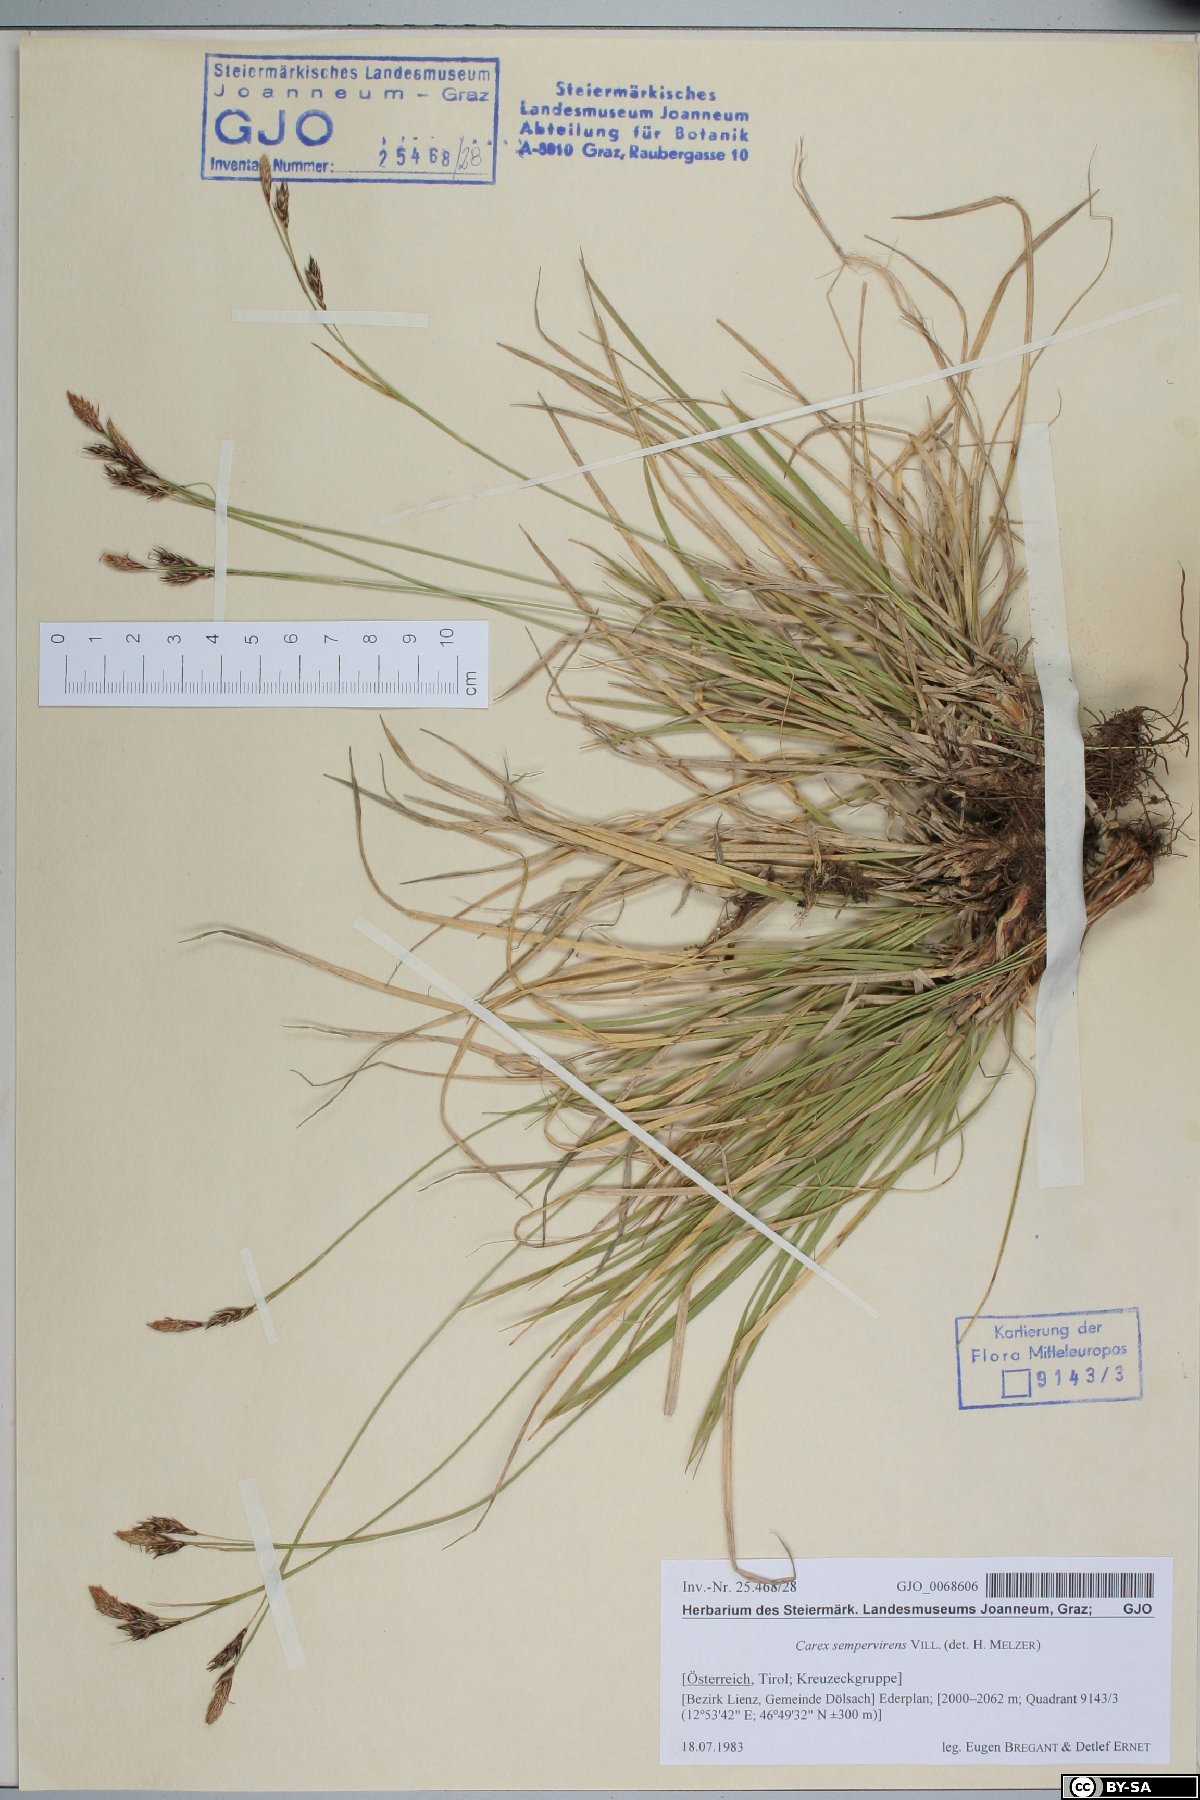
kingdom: Plantae
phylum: Tracheophyta
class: Liliopsida
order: Poales
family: Cyperaceae
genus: Carex
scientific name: Carex sempervirens
